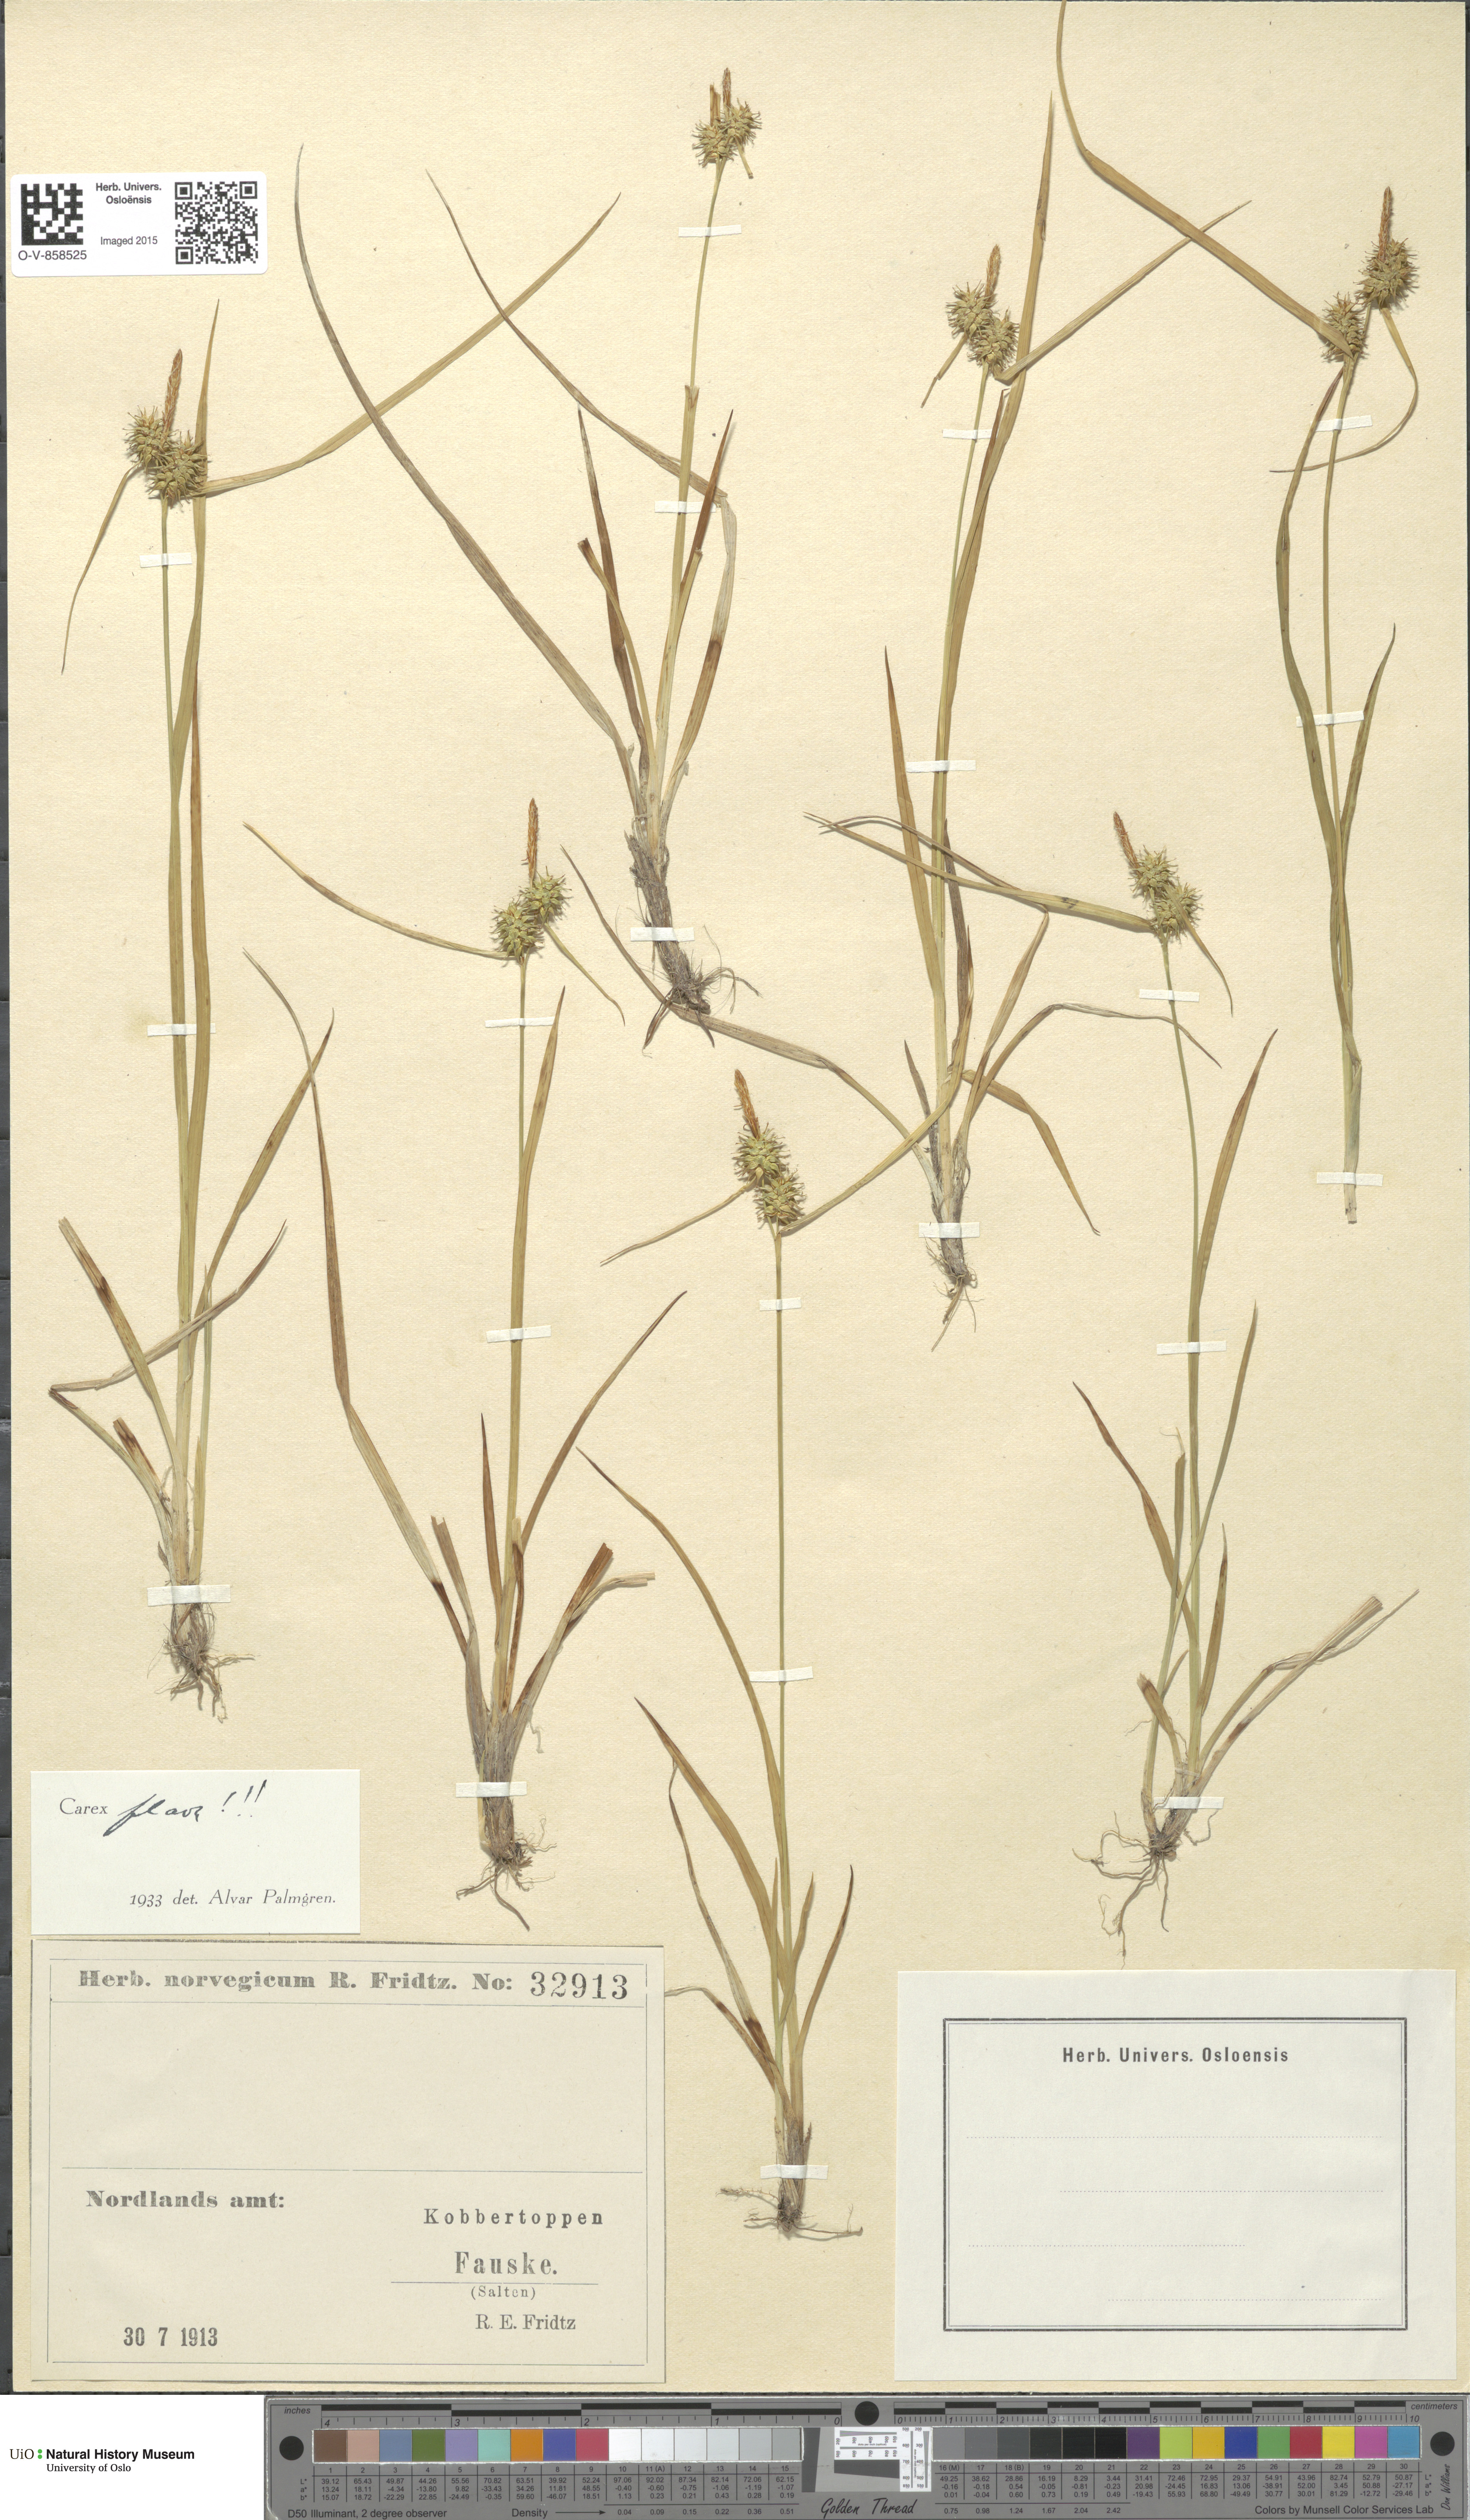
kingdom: Plantae
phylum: Tracheophyta
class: Liliopsida
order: Poales
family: Cyperaceae
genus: Carex
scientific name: Carex flava
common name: Large yellow-sedge
